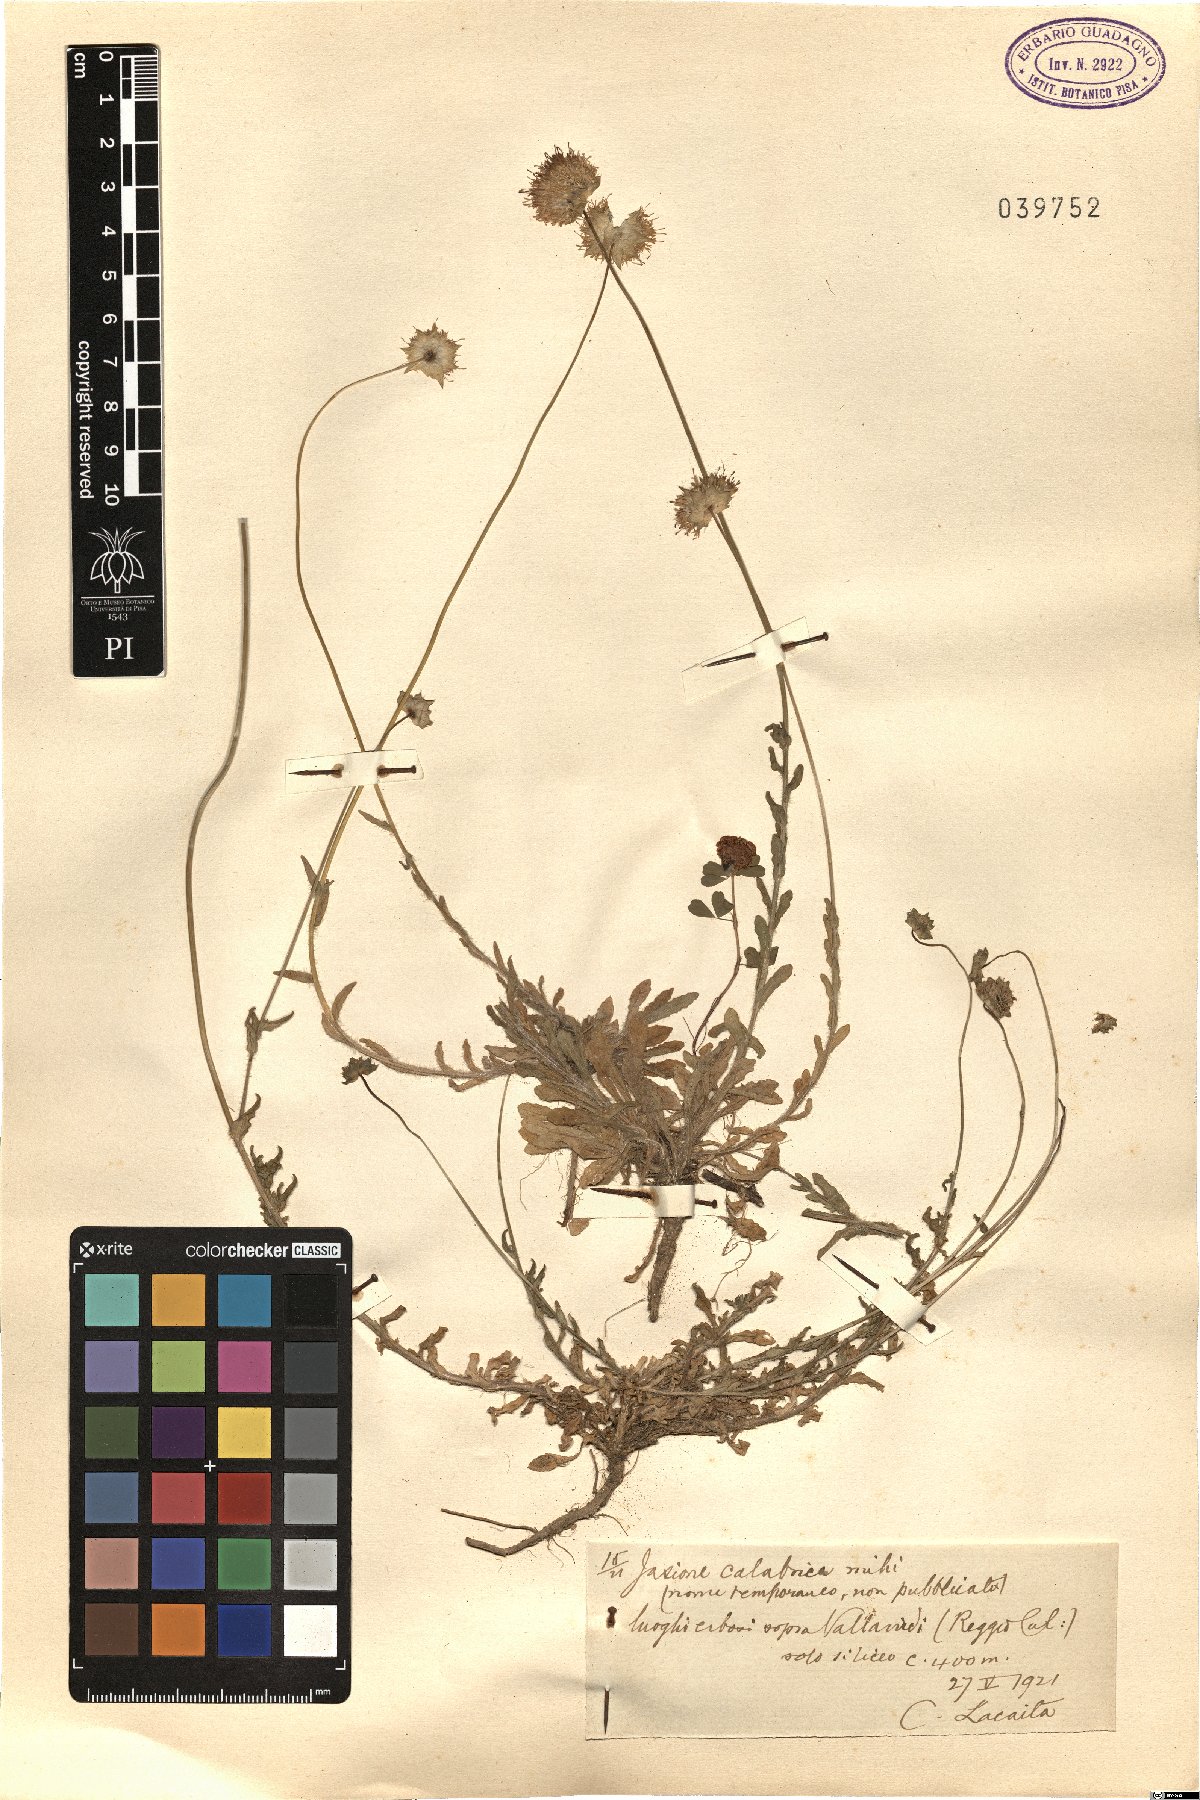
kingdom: Plantae
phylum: Tracheophyta
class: Magnoliopsida
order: Asterales
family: Campanulaceae
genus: Jasione
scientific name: Jasione
